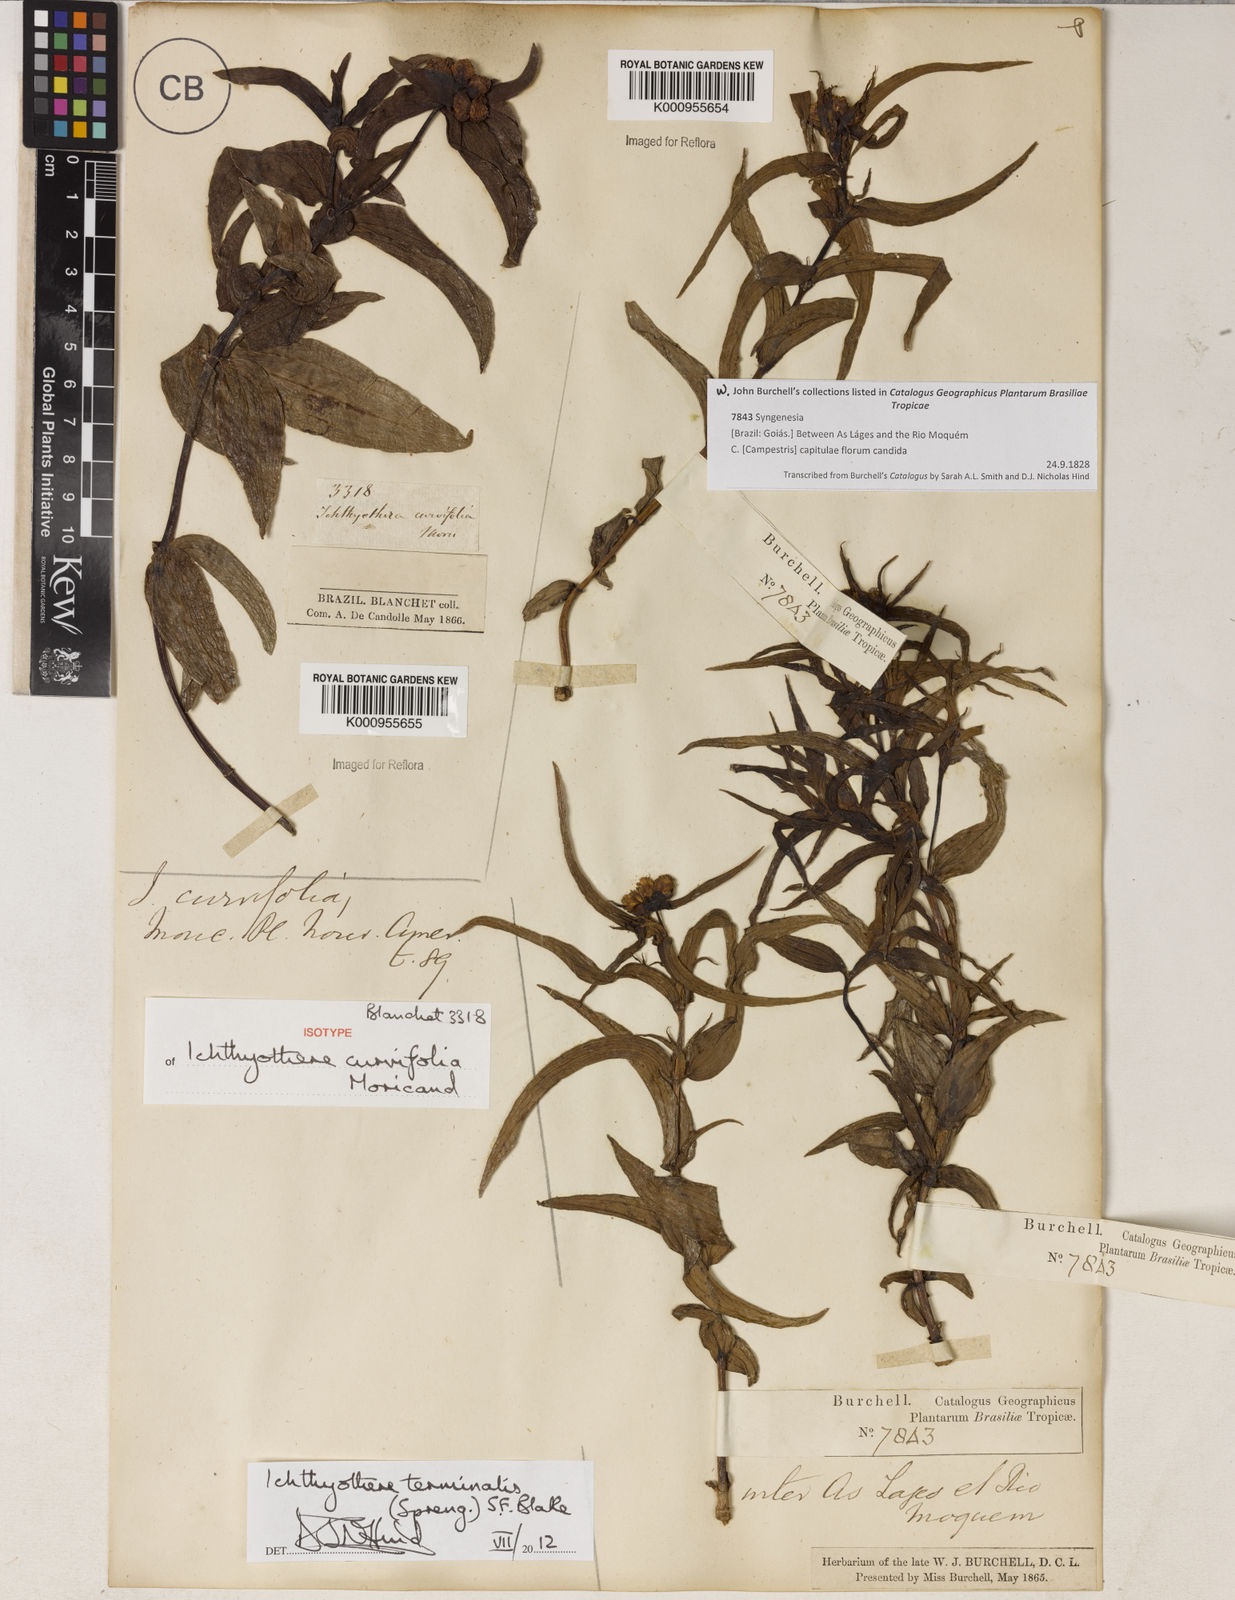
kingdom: Plantae
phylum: Tracheophyta
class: Magnoliopsida
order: Asterales
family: Asteraceae
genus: Ichthyothere
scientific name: Ichthyothere
